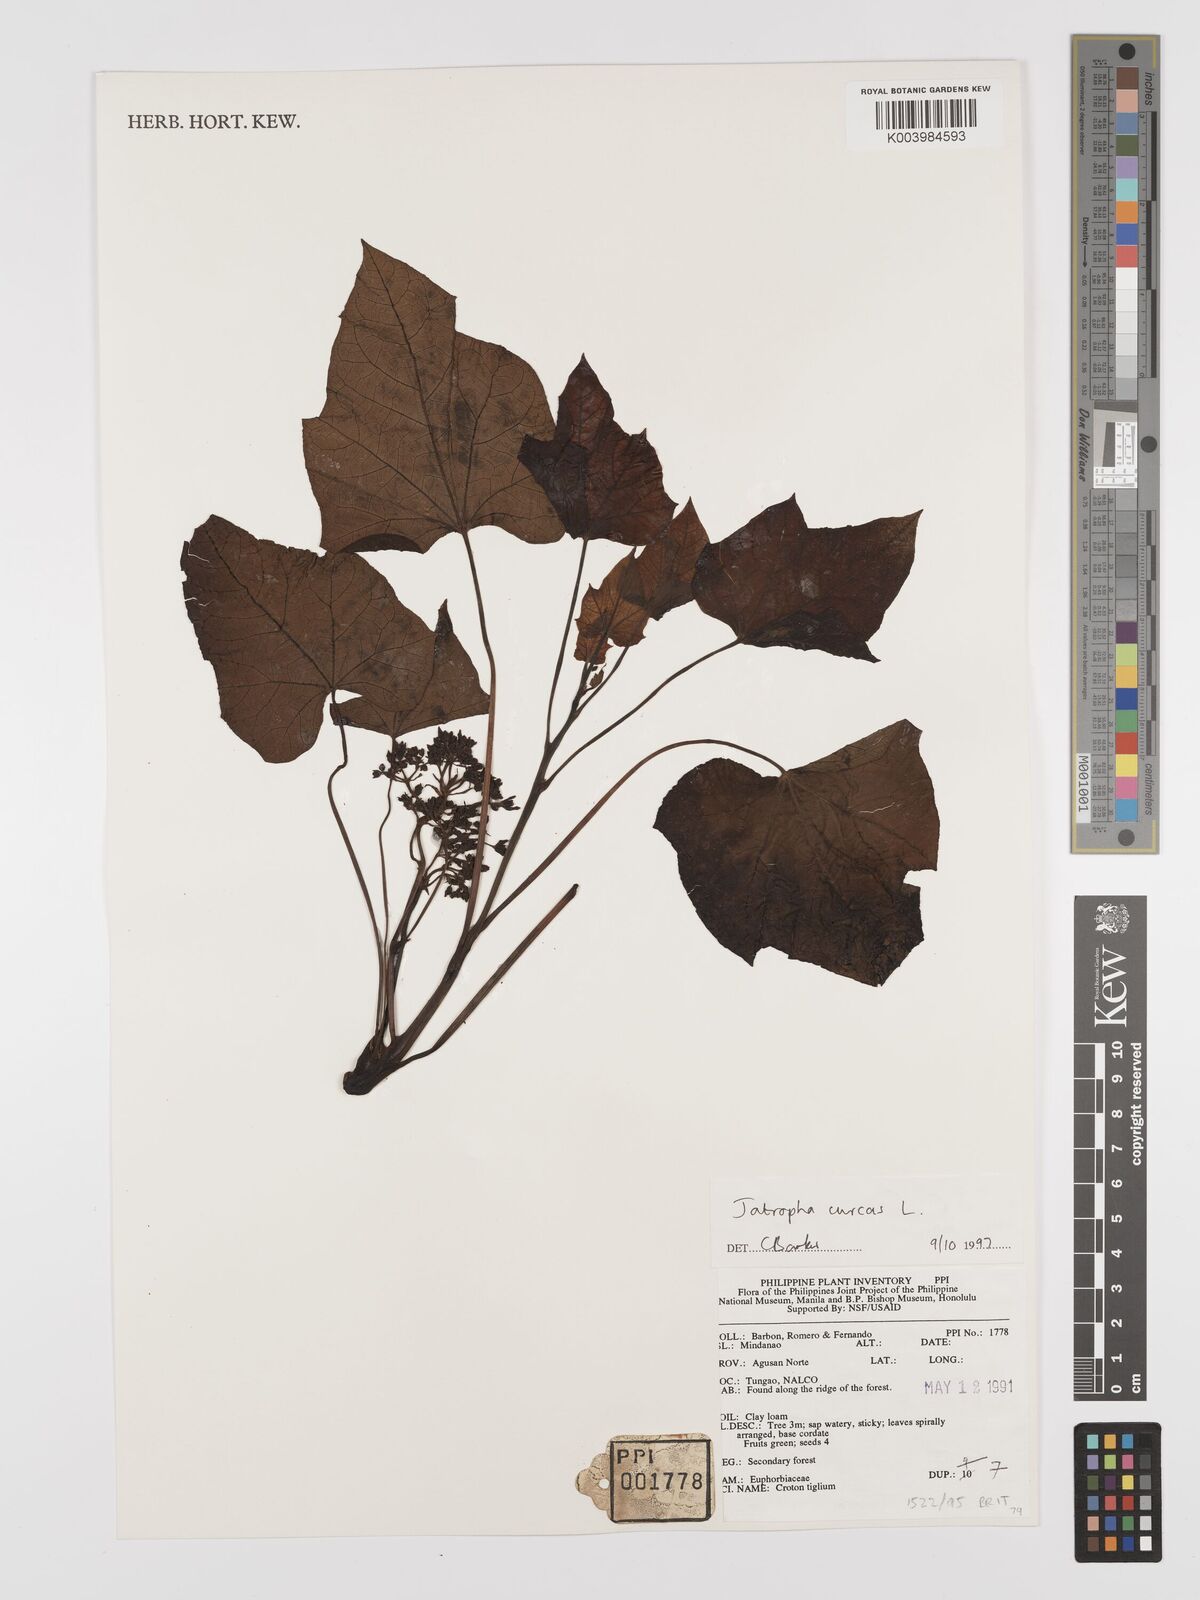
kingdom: Plantae
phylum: Tracheophyta
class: Magnoliopsida
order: Malpighiales
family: Euphorbiaceae
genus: Jatropha
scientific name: Jatropha curcas
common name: Barbados nut
